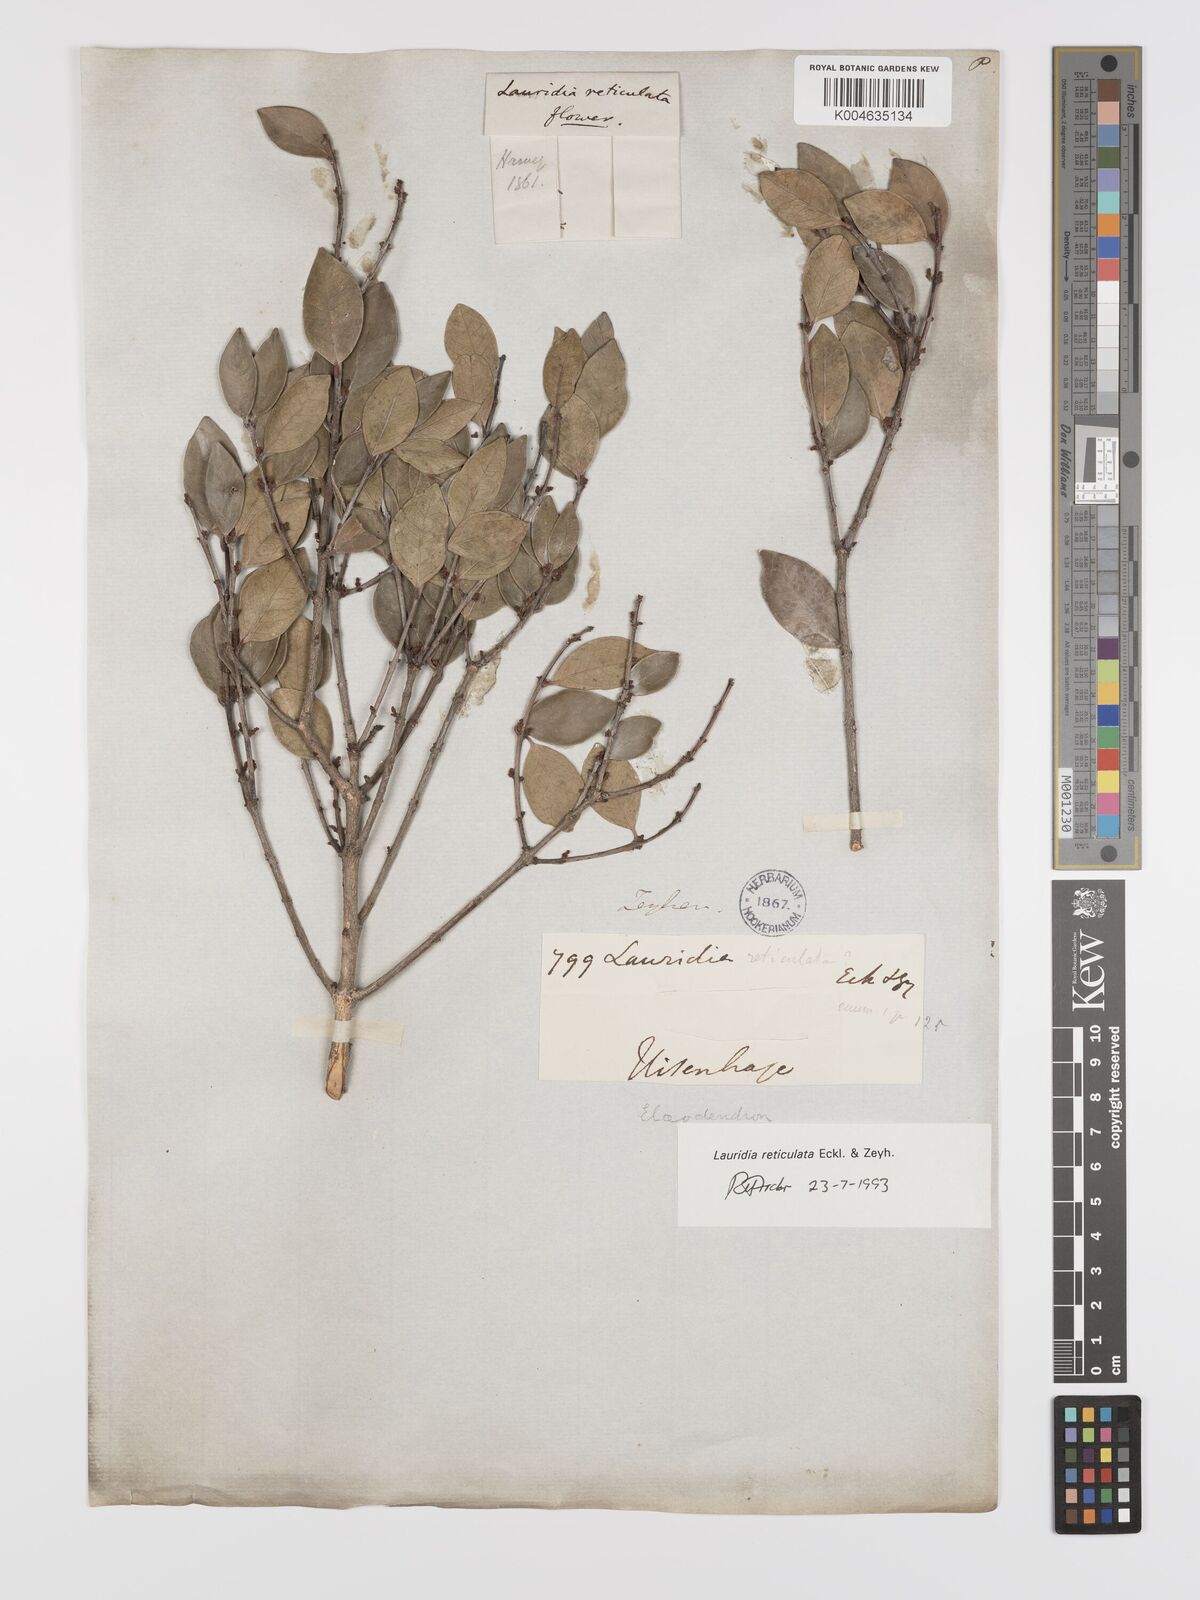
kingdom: Plantae
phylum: Tracheophyta
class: Magnoliopsida
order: Celastrales
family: Celastraceae
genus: Lauridia
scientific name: Lauridia reticulata
